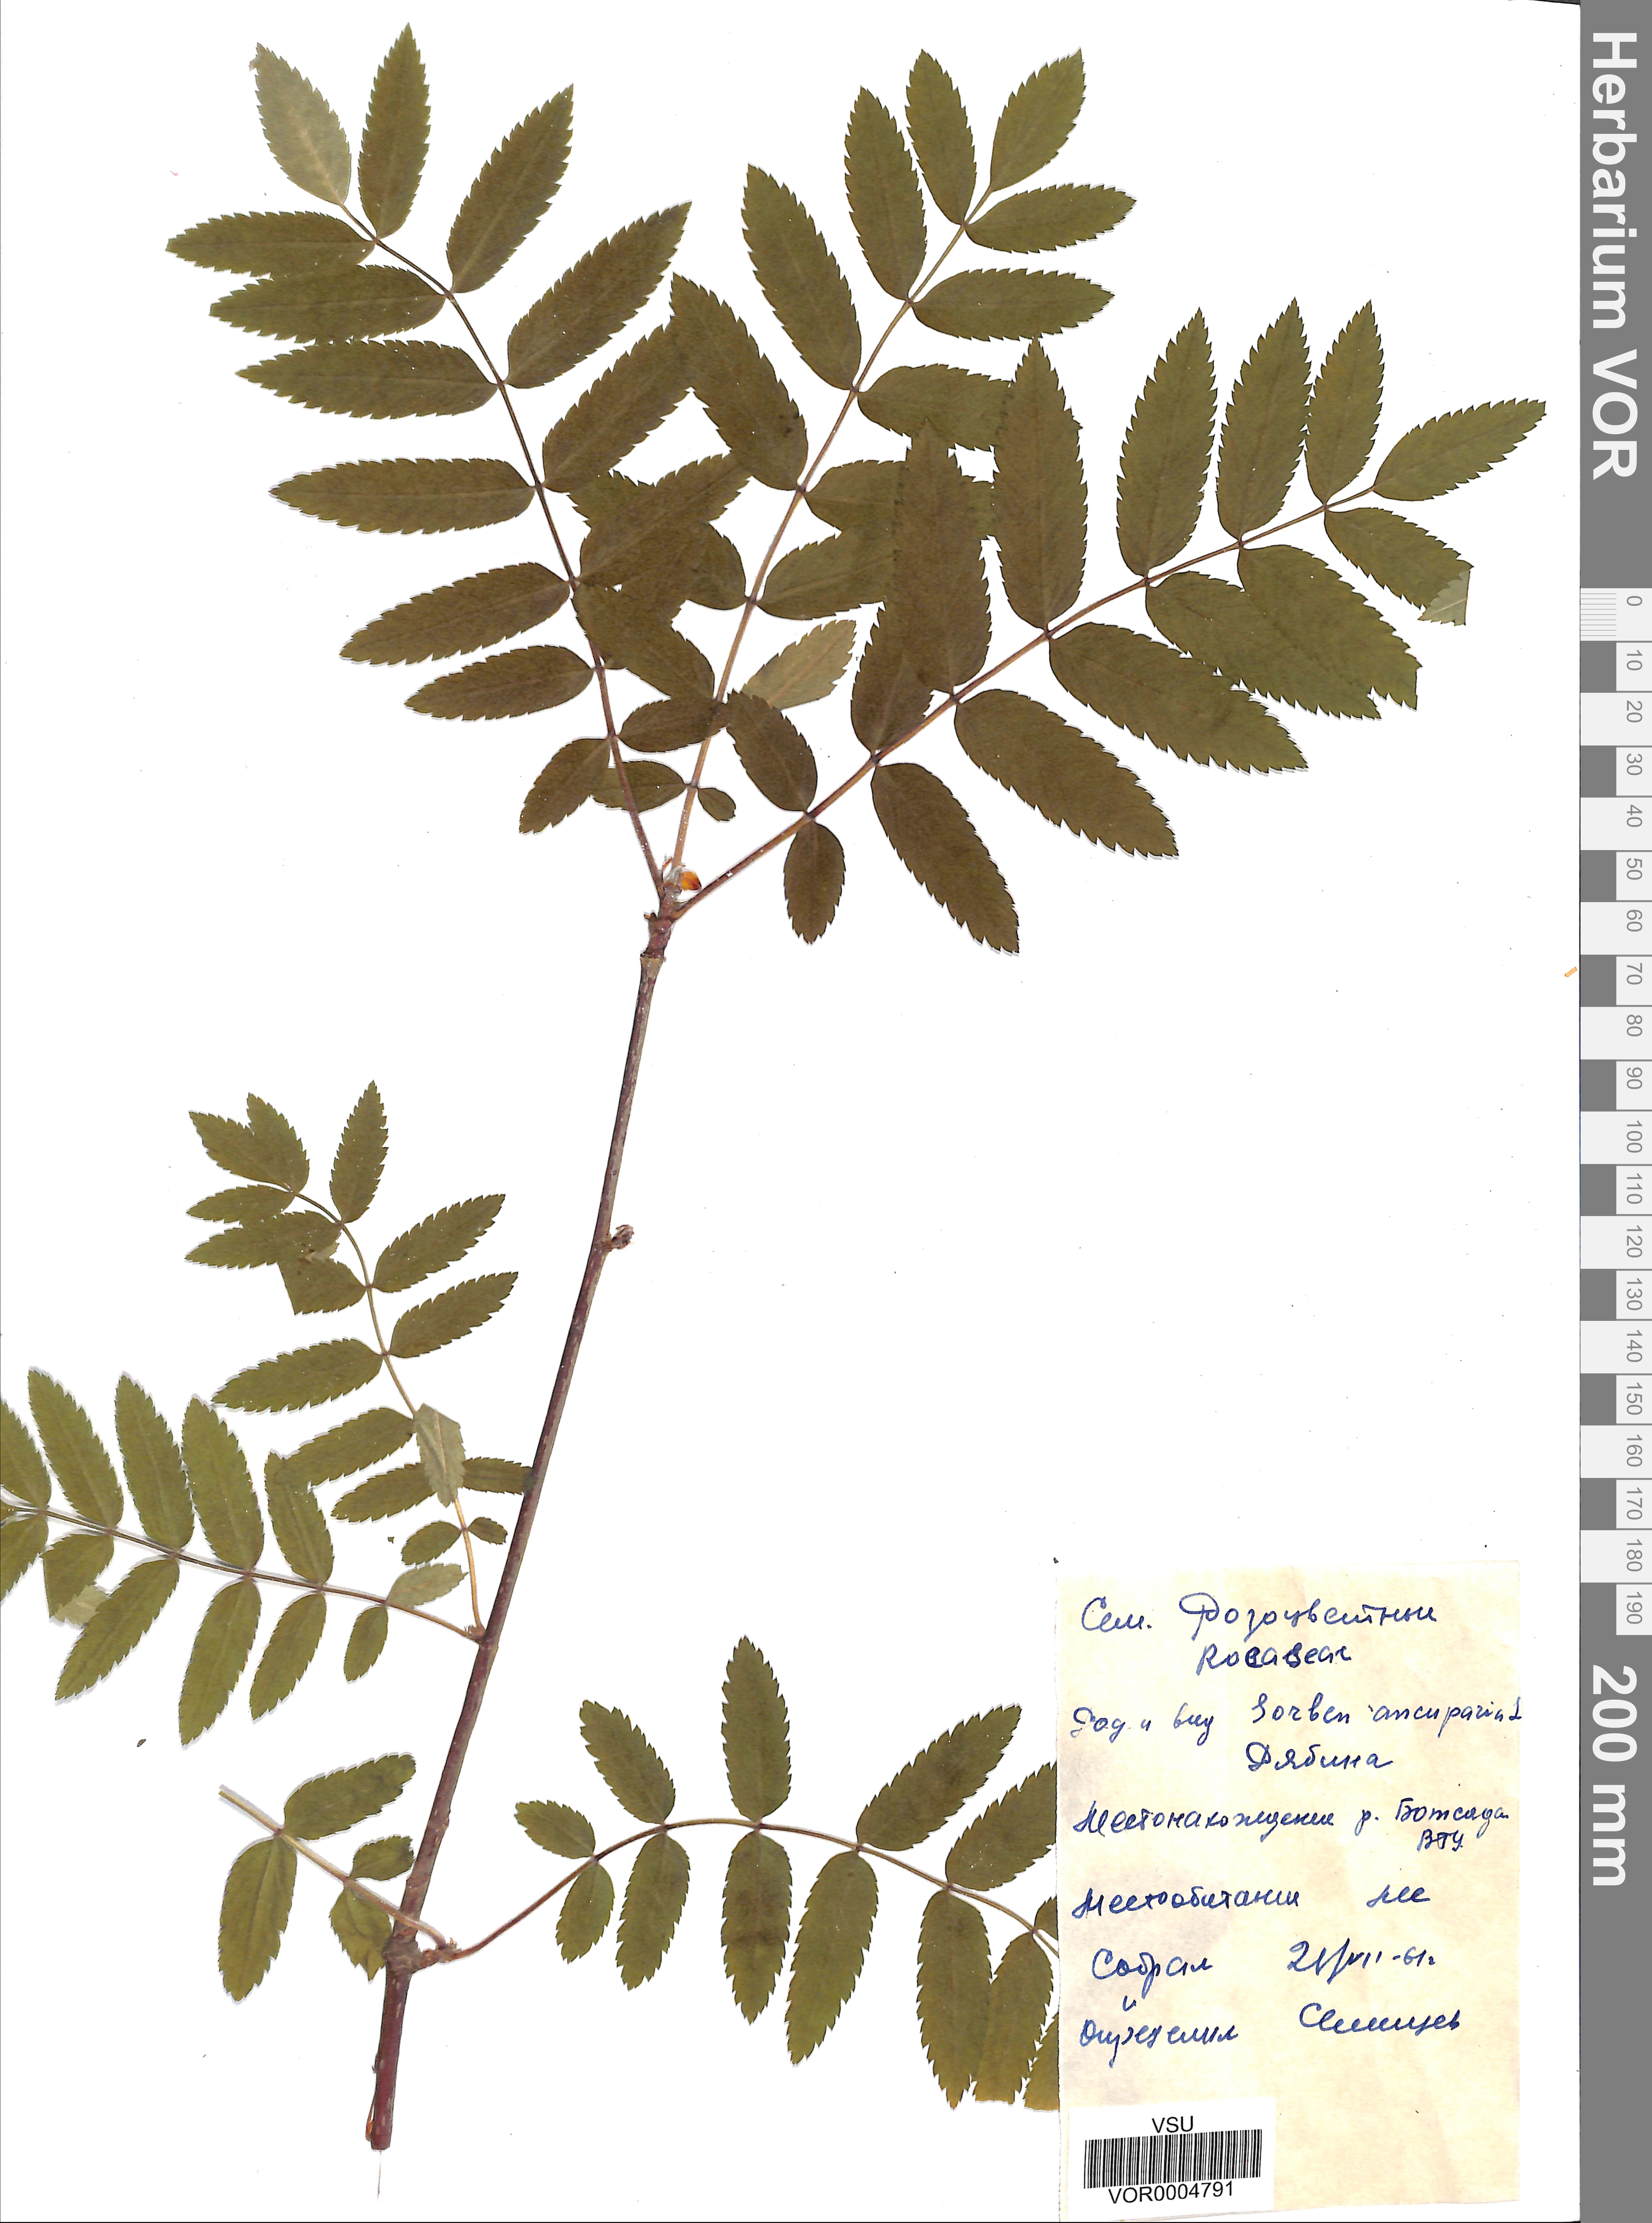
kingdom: Plantae
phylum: Tracheophyta
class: Magnoliopsida
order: Rosales
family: Rosaceae
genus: Sorbus
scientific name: Sorbus aucuparia
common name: Rowan
